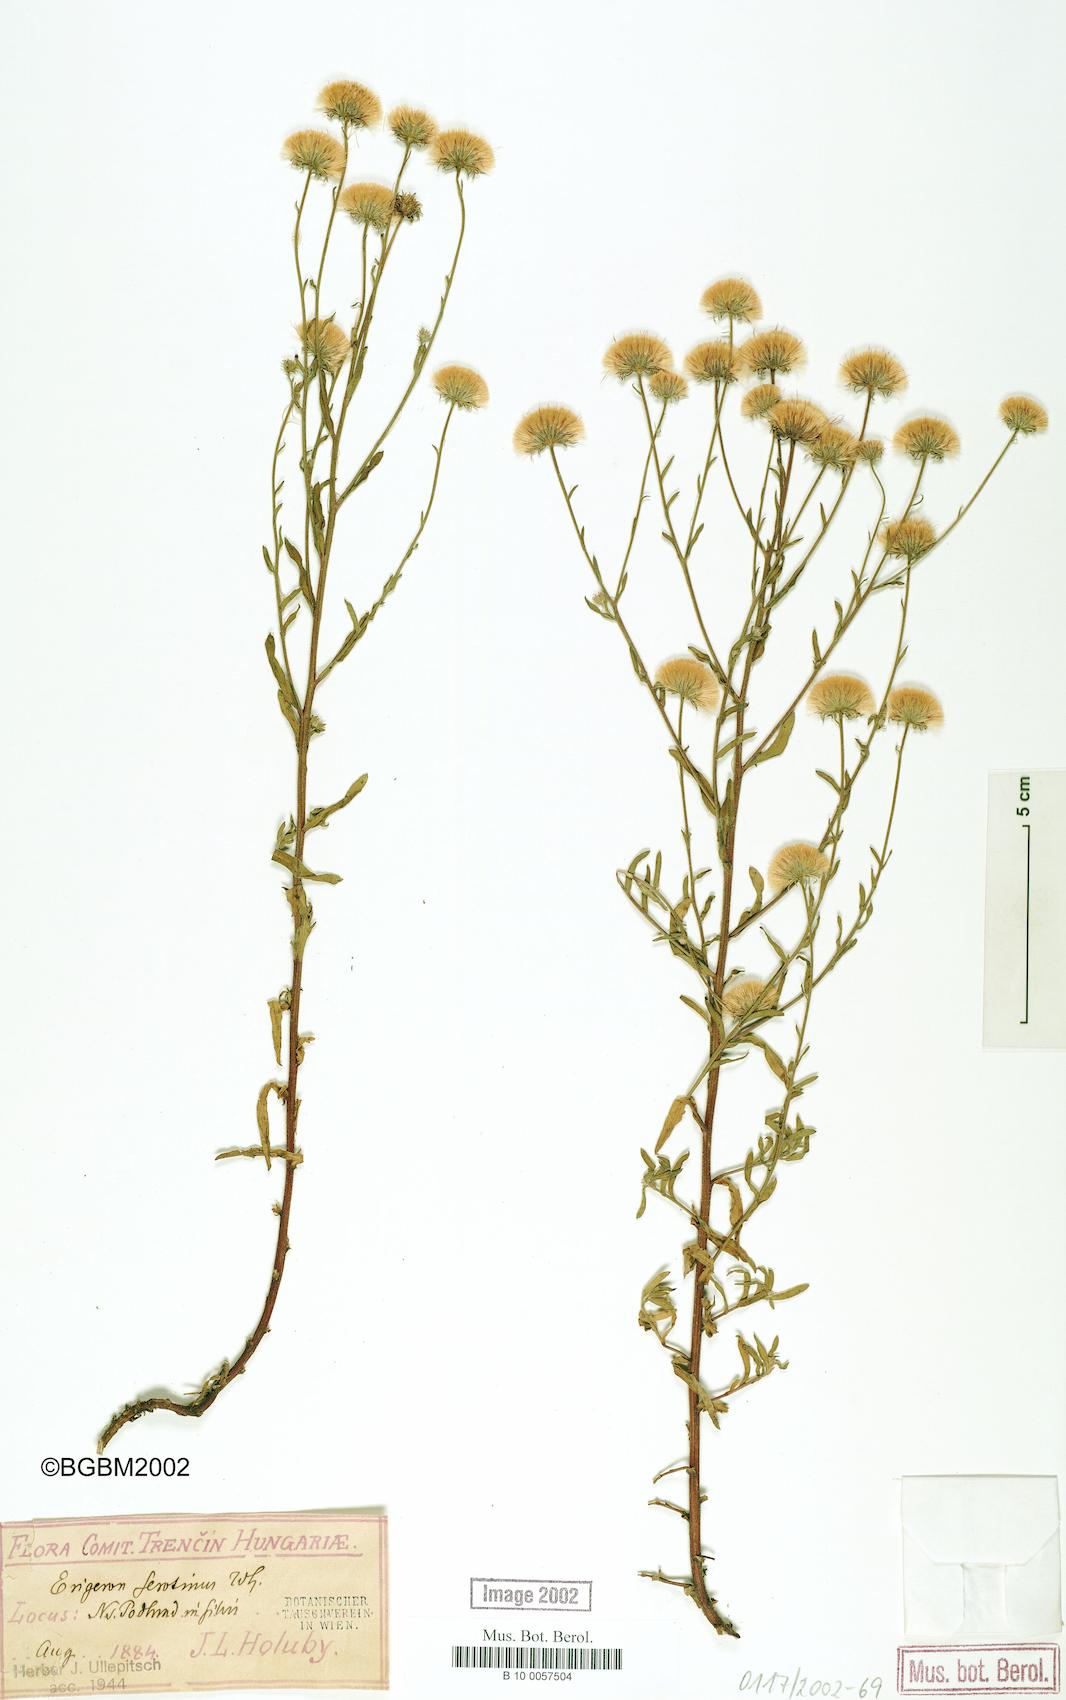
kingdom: Plantae
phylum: Tracheophyta
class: Magnoliopsida
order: Asterales
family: Asteraceae
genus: Erigeron
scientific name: Erigeron muralis
